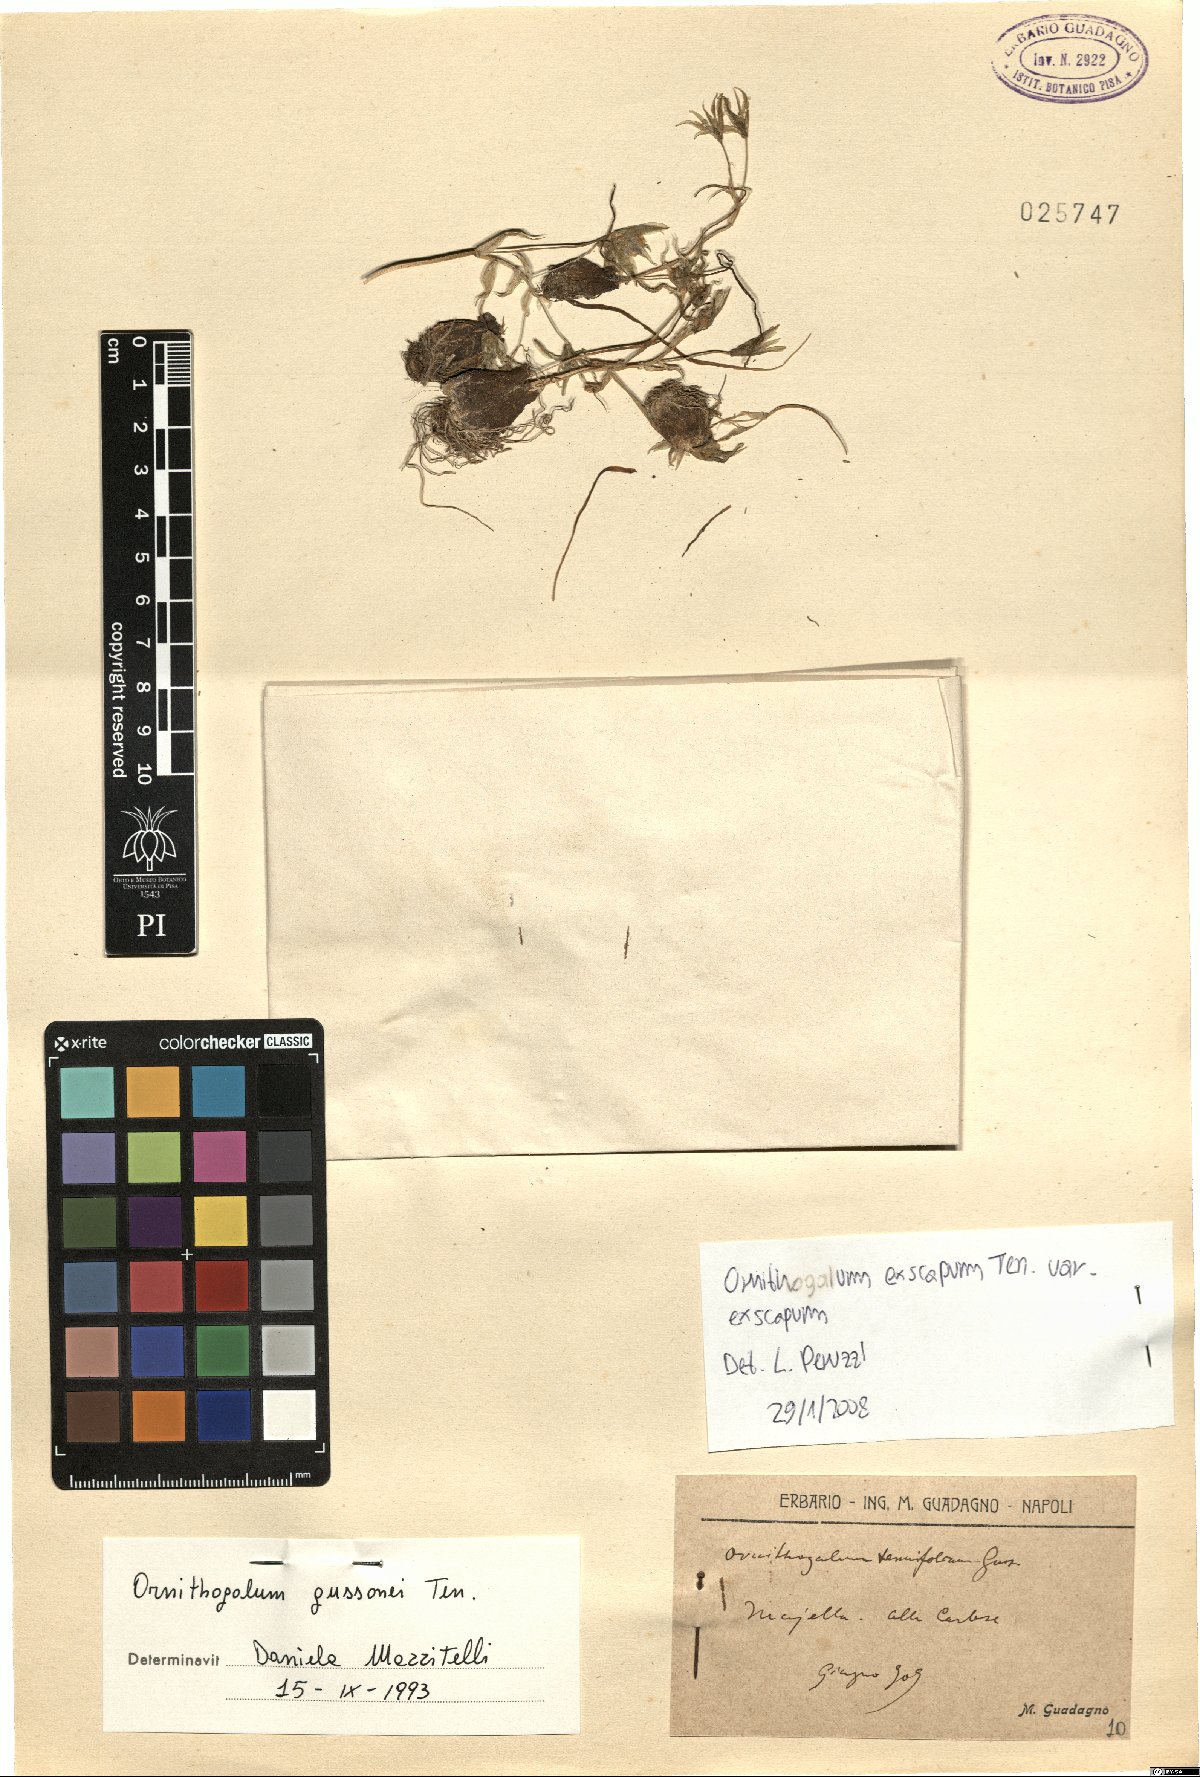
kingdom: Plantae
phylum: Tracheophyta
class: Liliopsida
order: Asparagales
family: Asparagaceae
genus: Ornithogalum
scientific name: Ornithogalum exscapum
